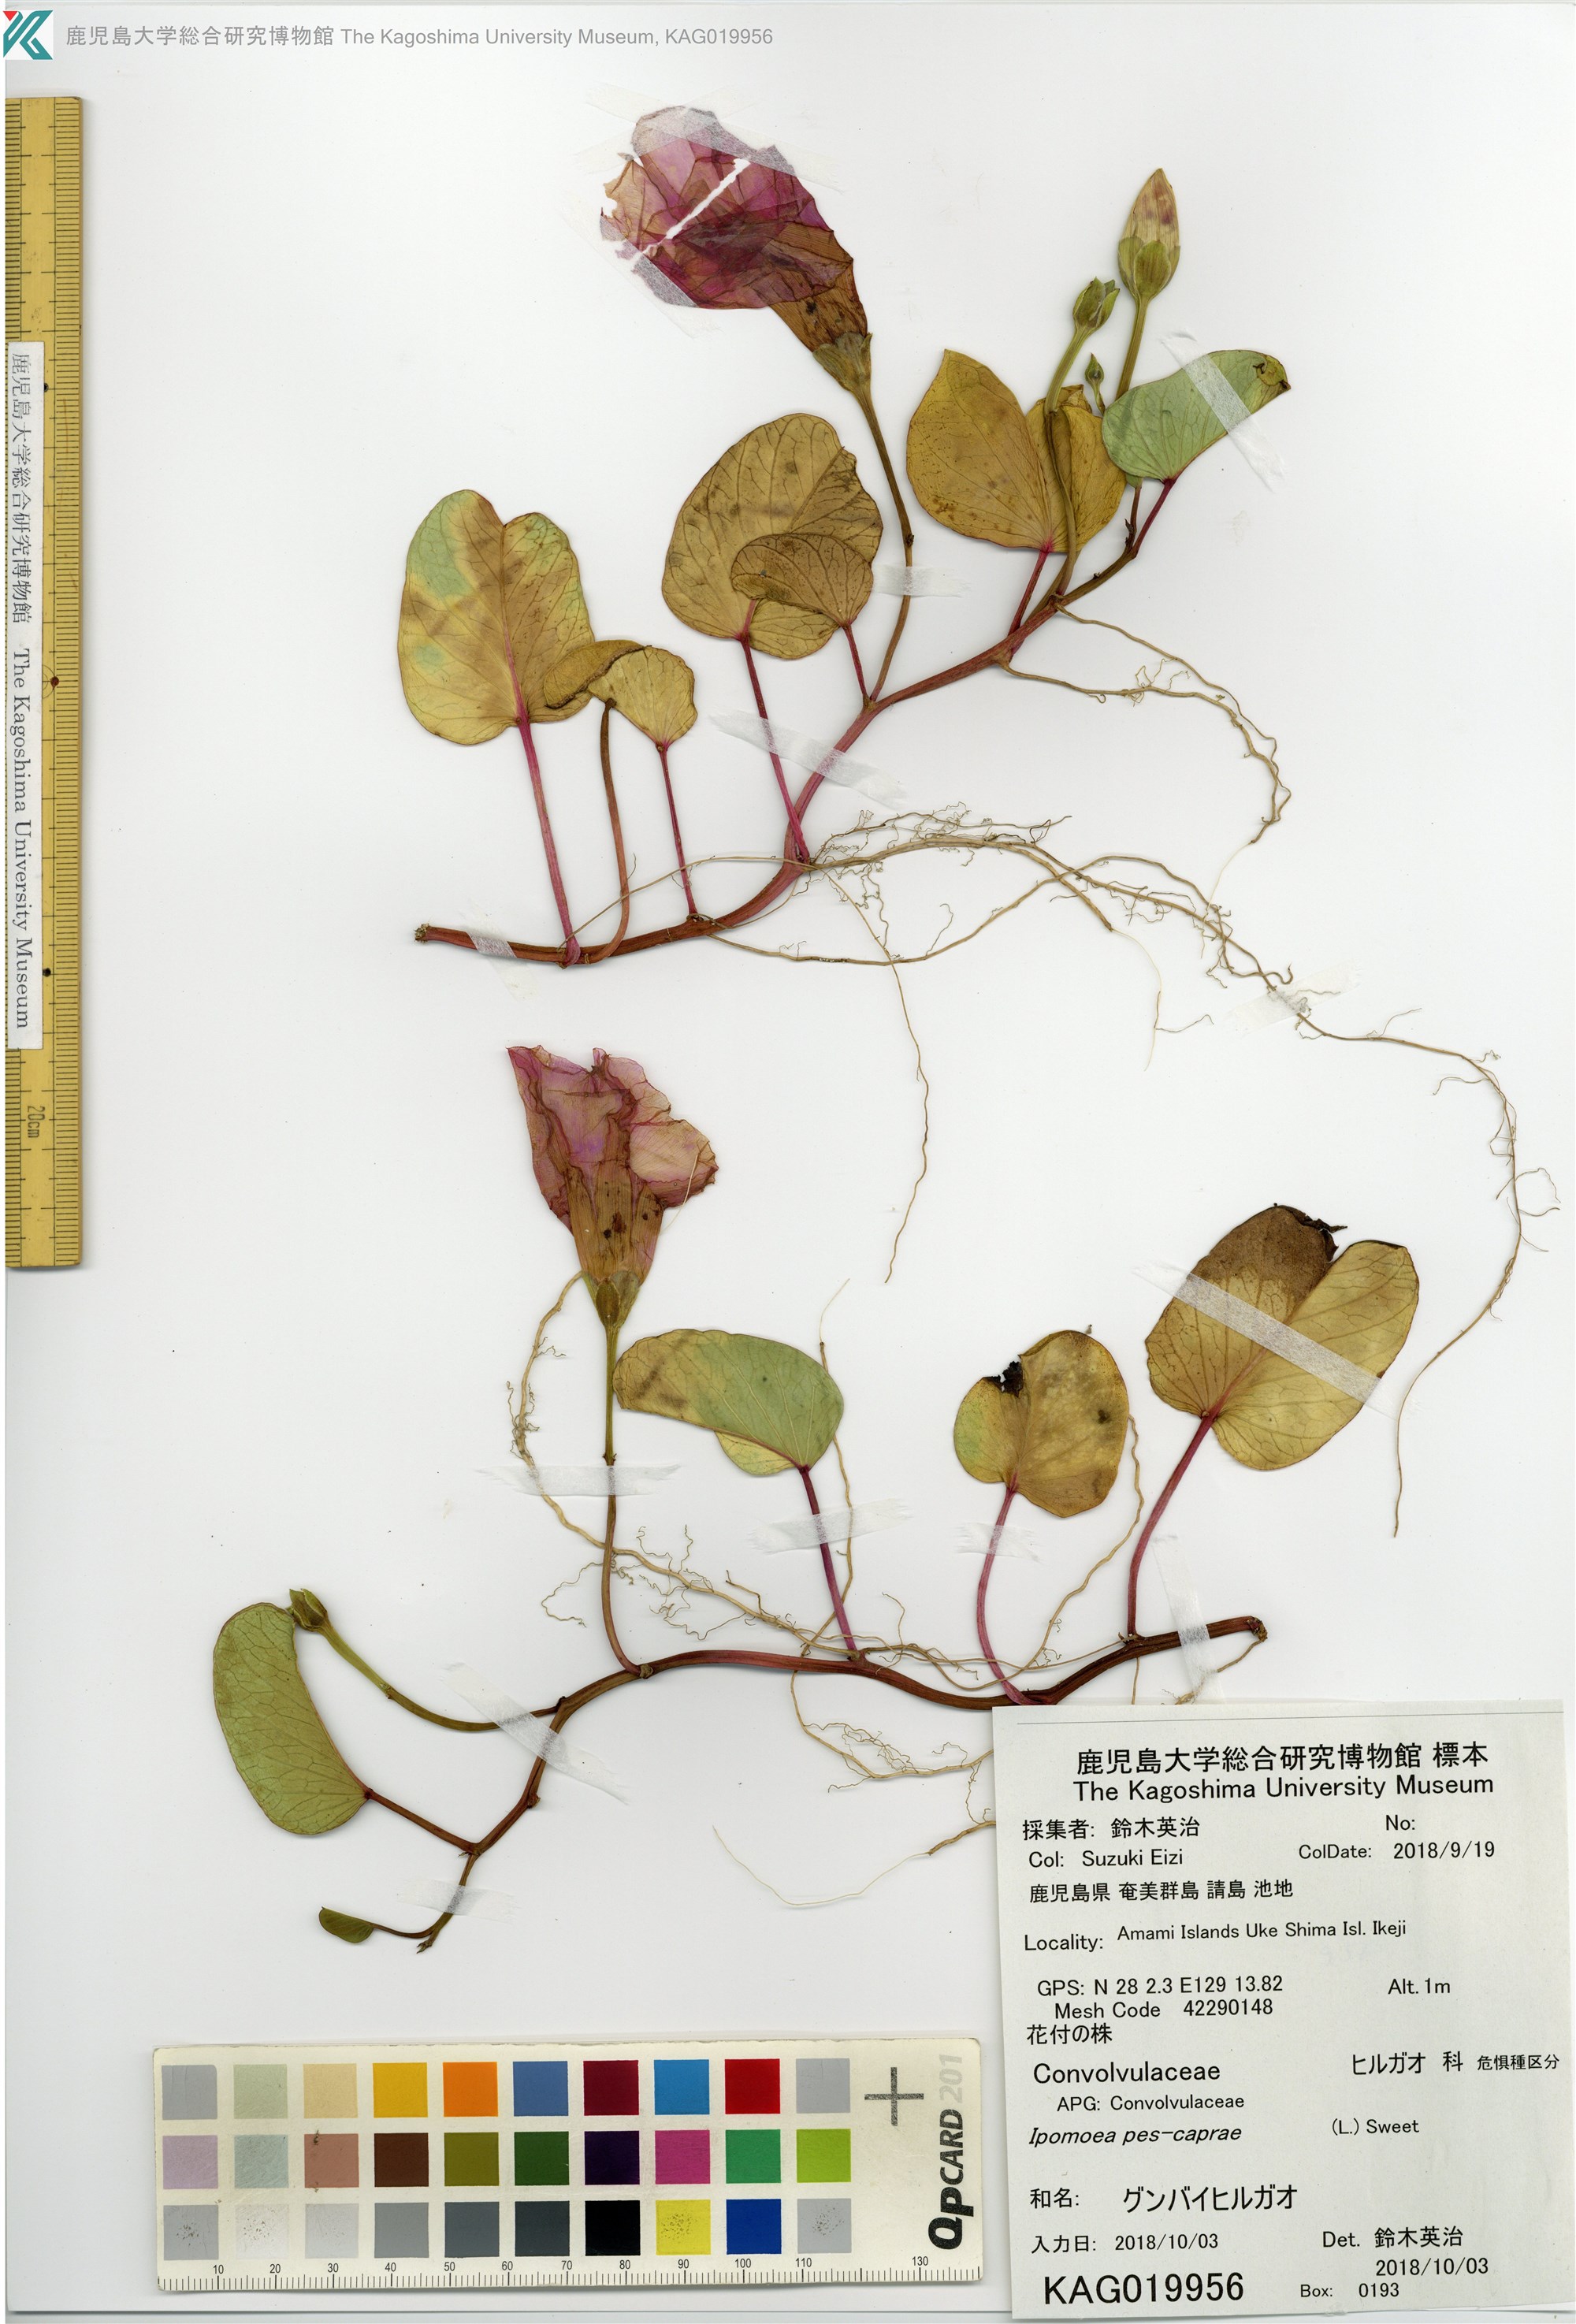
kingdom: Plantae
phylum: Tracheophyta
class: Magnoliopsida
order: Solanales
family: Convolvulaceae
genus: Ipomoea
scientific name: Ipomoea pes-caprae
